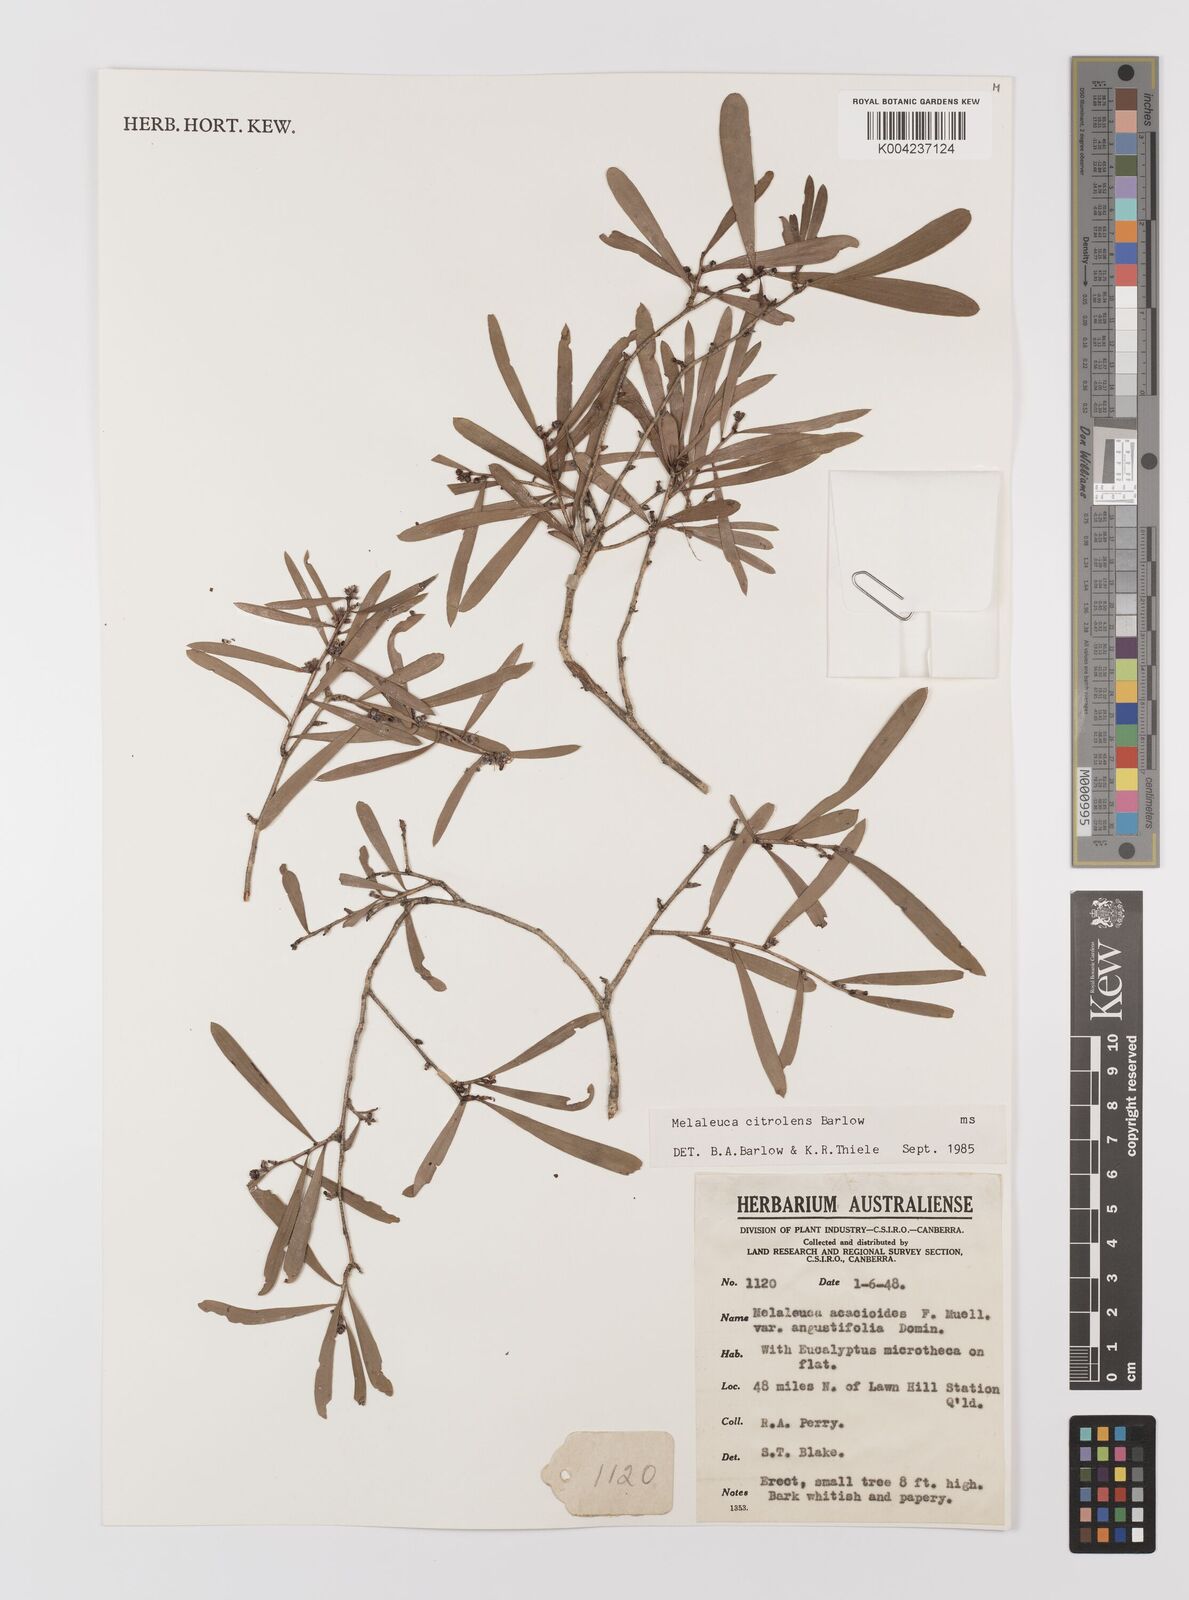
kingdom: Plantae
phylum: Tracheophyta
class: Magnoliopsida
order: Myrtales
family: Myrtaceae
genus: Melaleuca
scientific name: Melaleuca citrolens
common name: Lemon-scented paperbark
